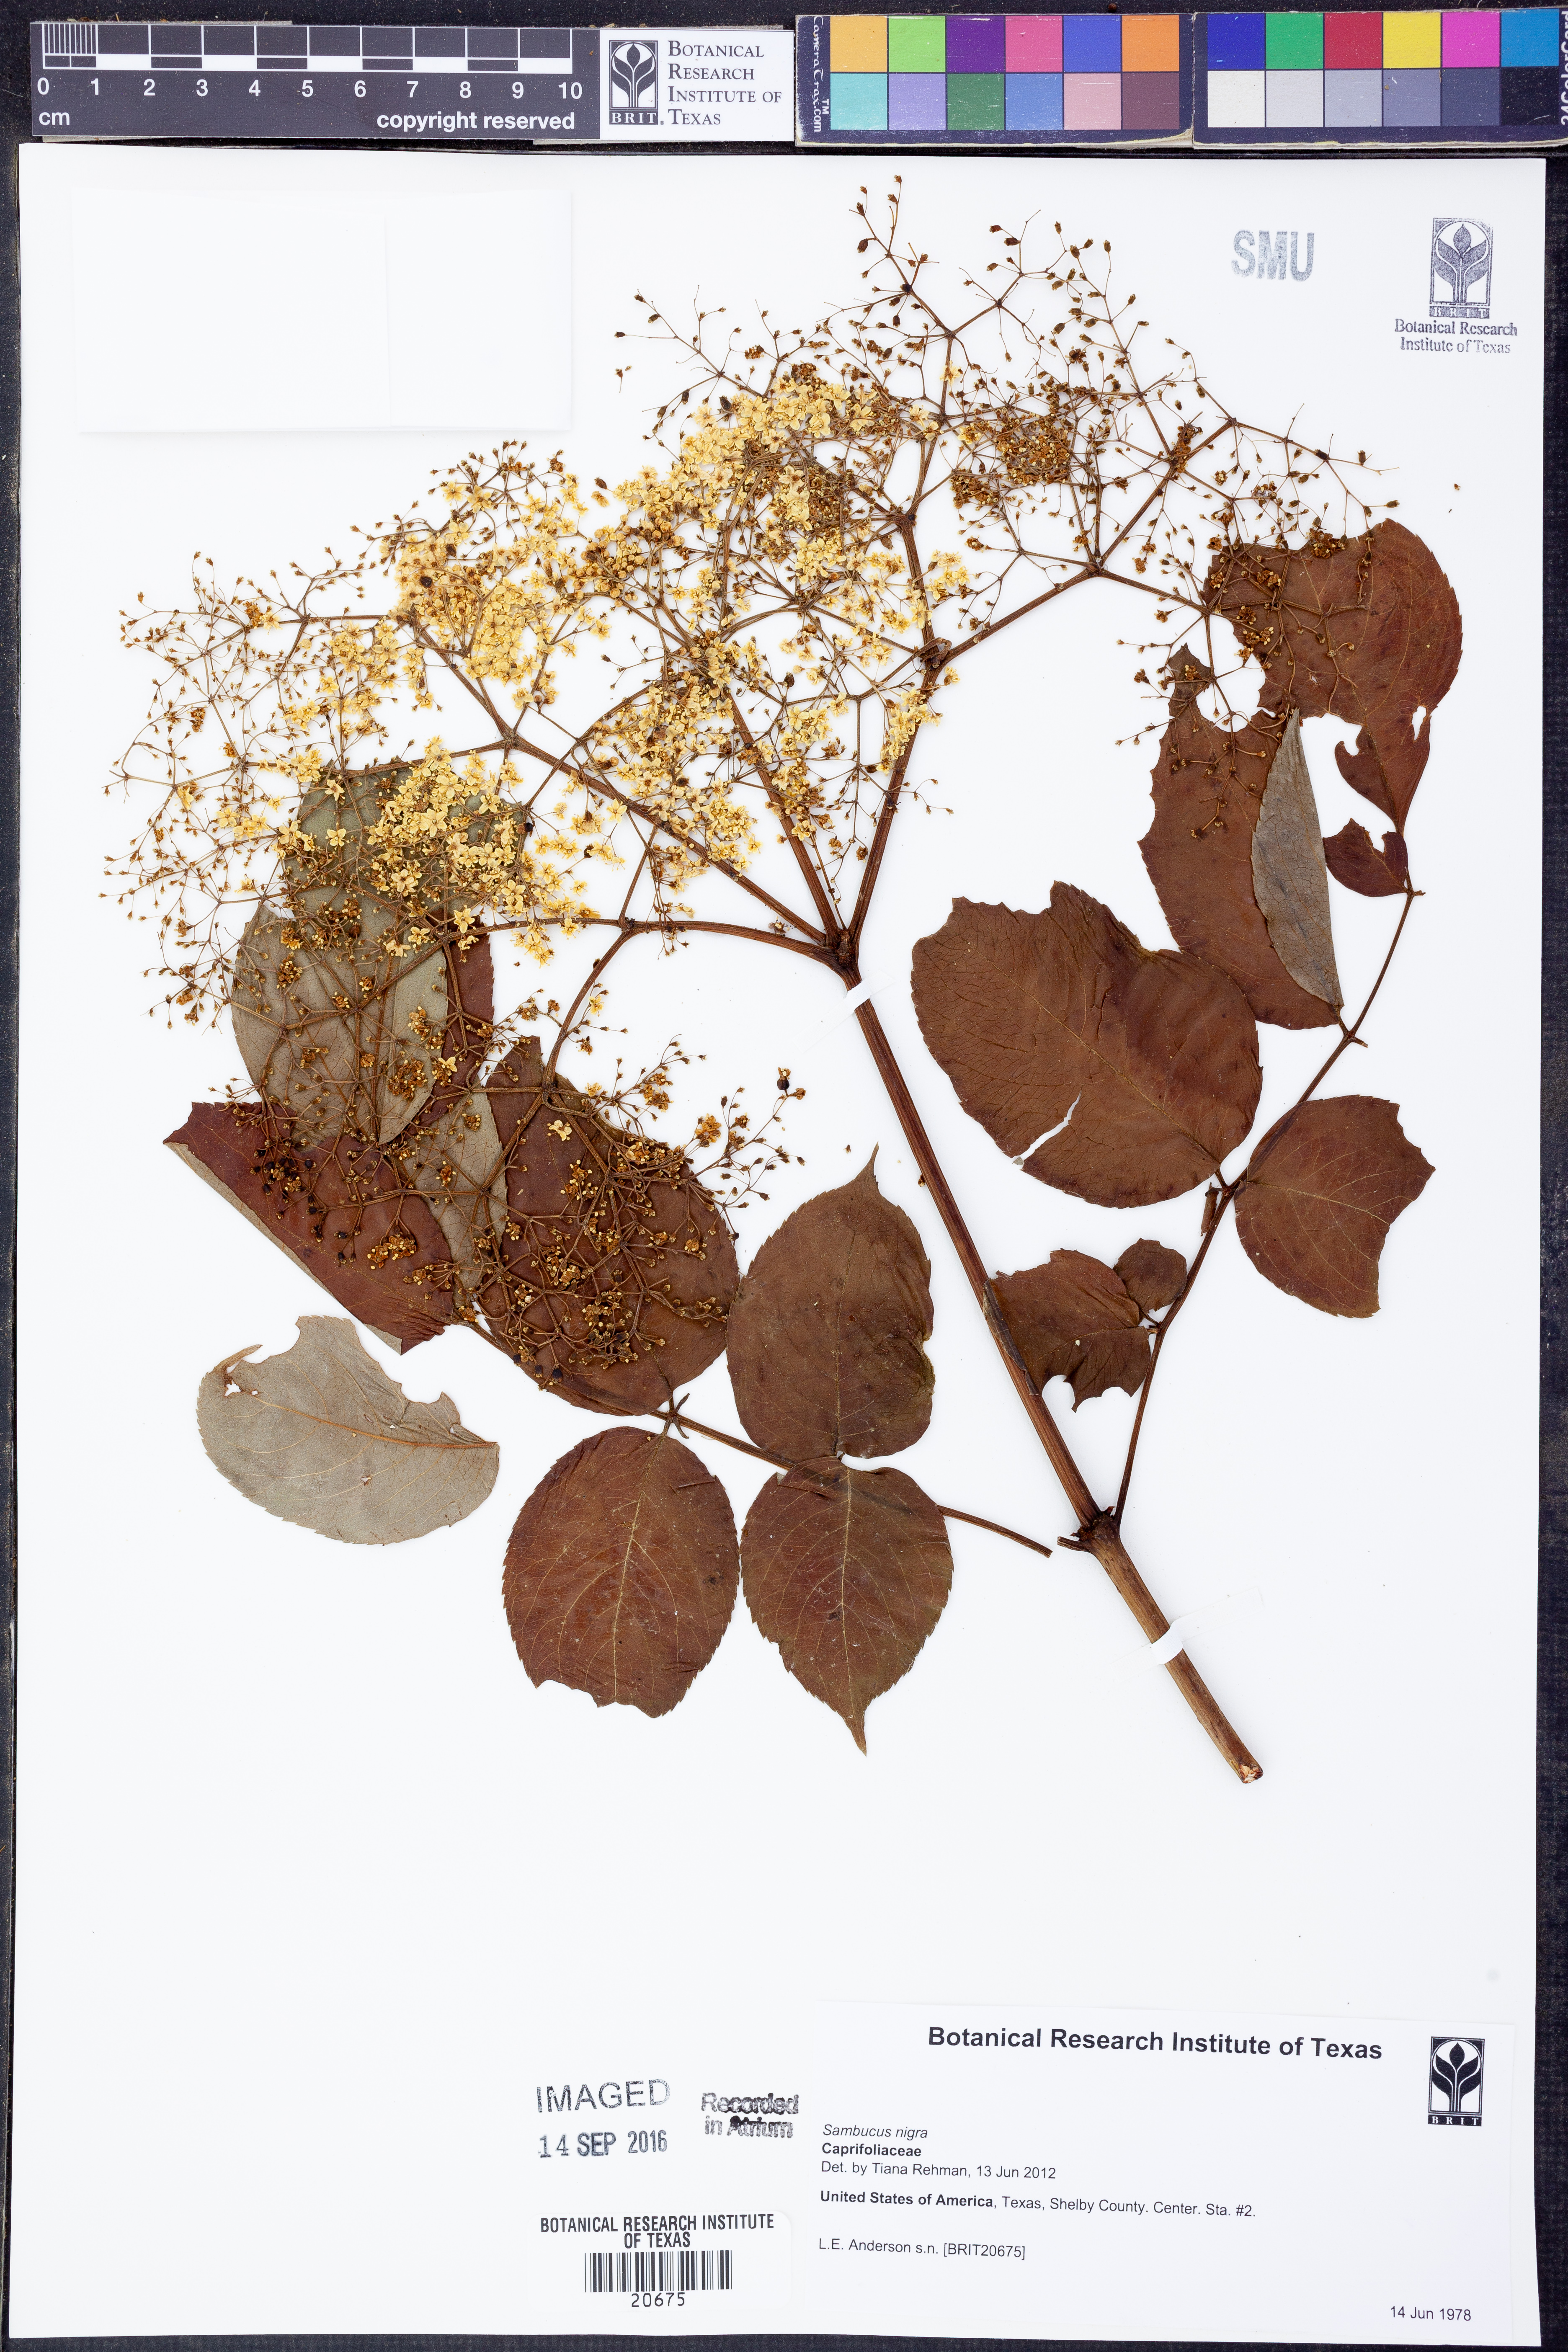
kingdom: Plantae
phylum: Tracheophyta
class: Magnoliopsida
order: Dipsacales
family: Viburnaceae
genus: Sambucus
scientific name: Sambucus nigra
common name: Elder
